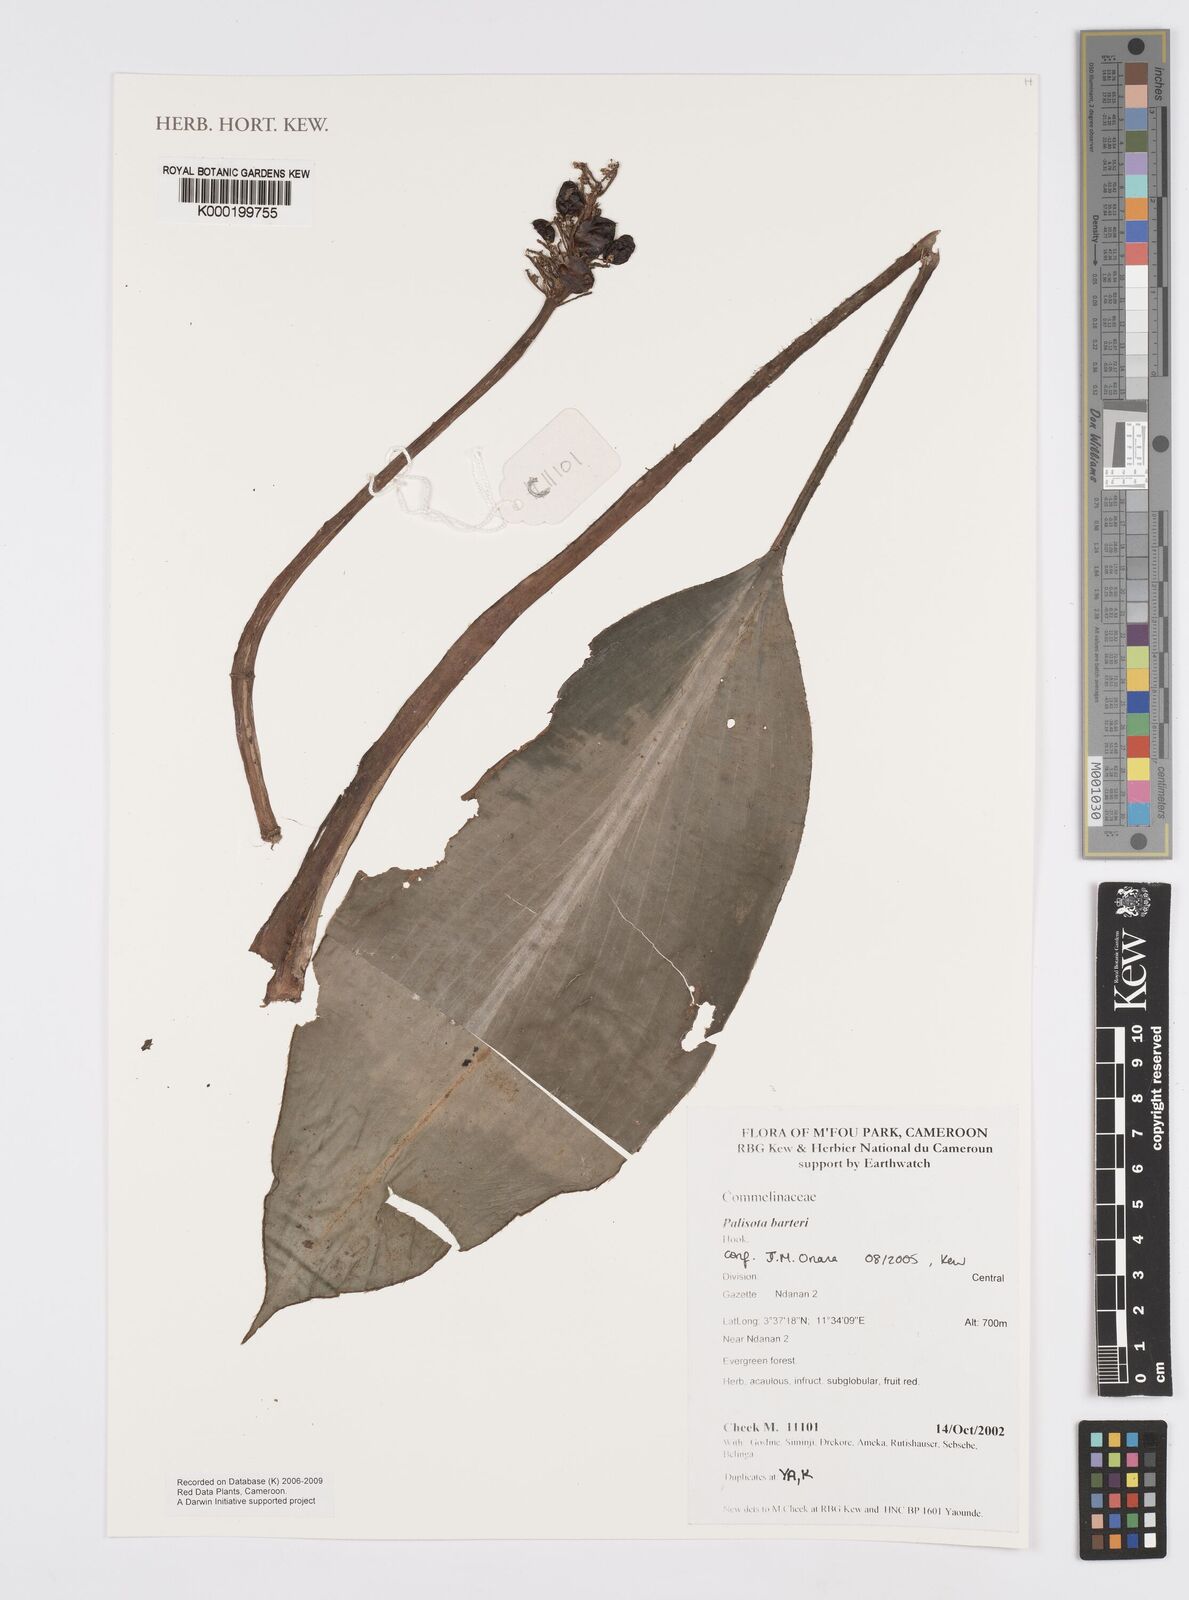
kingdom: Plantae
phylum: Tracheophyta
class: Liliopsida
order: Commelinales
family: Commelinaceae
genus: Palisota
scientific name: Palisota barteri
